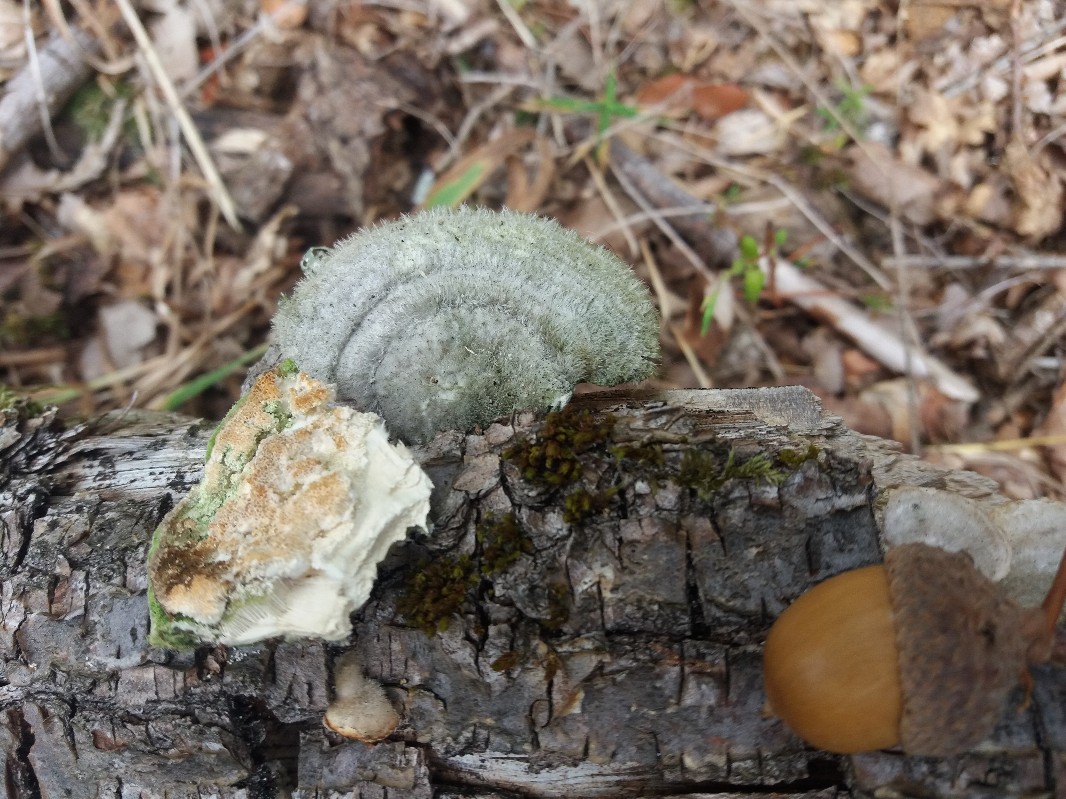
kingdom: Fungi
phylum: Basidiomycota
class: Agaricomycetes
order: Polyporales
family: Polyporaceae
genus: Trametes
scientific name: Trametes hirsuta
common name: håret læderporesvamp
